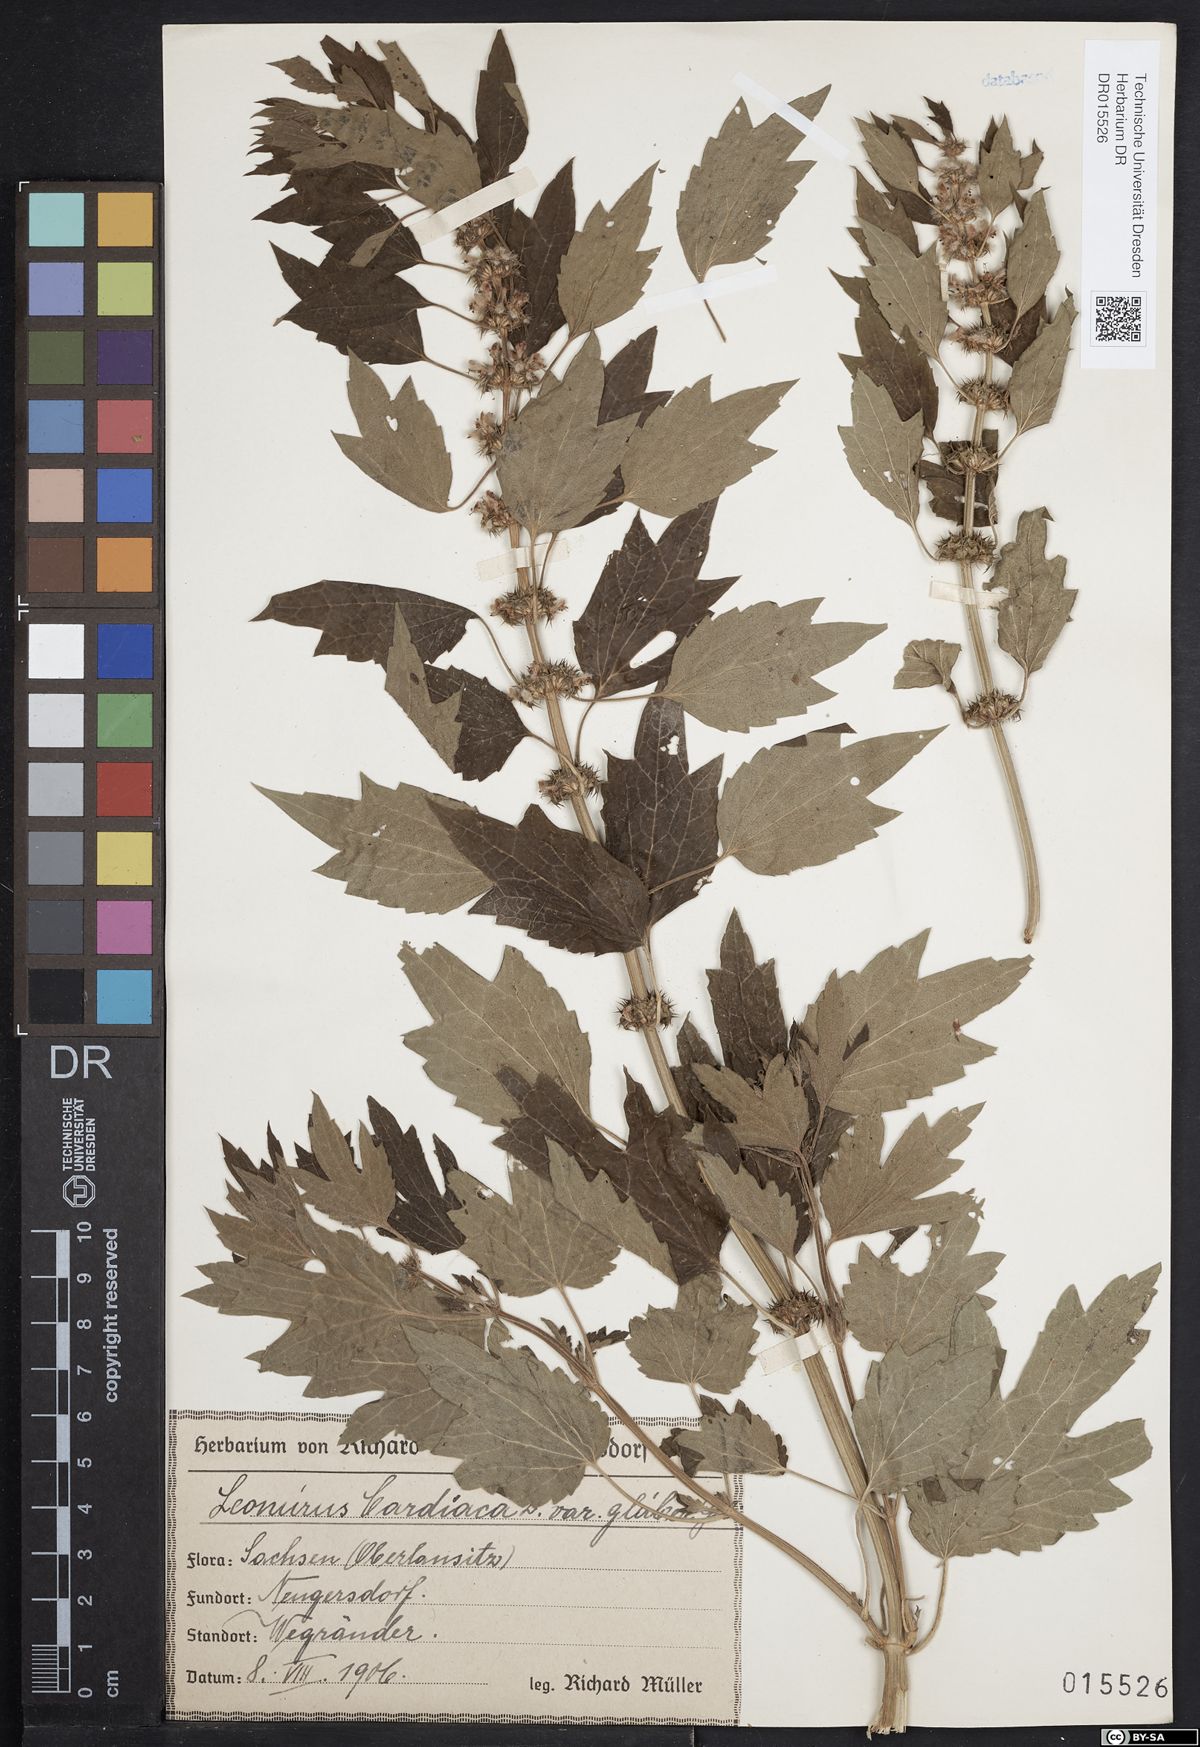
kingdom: Plantae
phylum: Tracheophyta
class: Magnoliopsida
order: Lamiales
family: Lamiaceae
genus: Leonurus
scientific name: Leonurus cardiaca
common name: Motherwort
